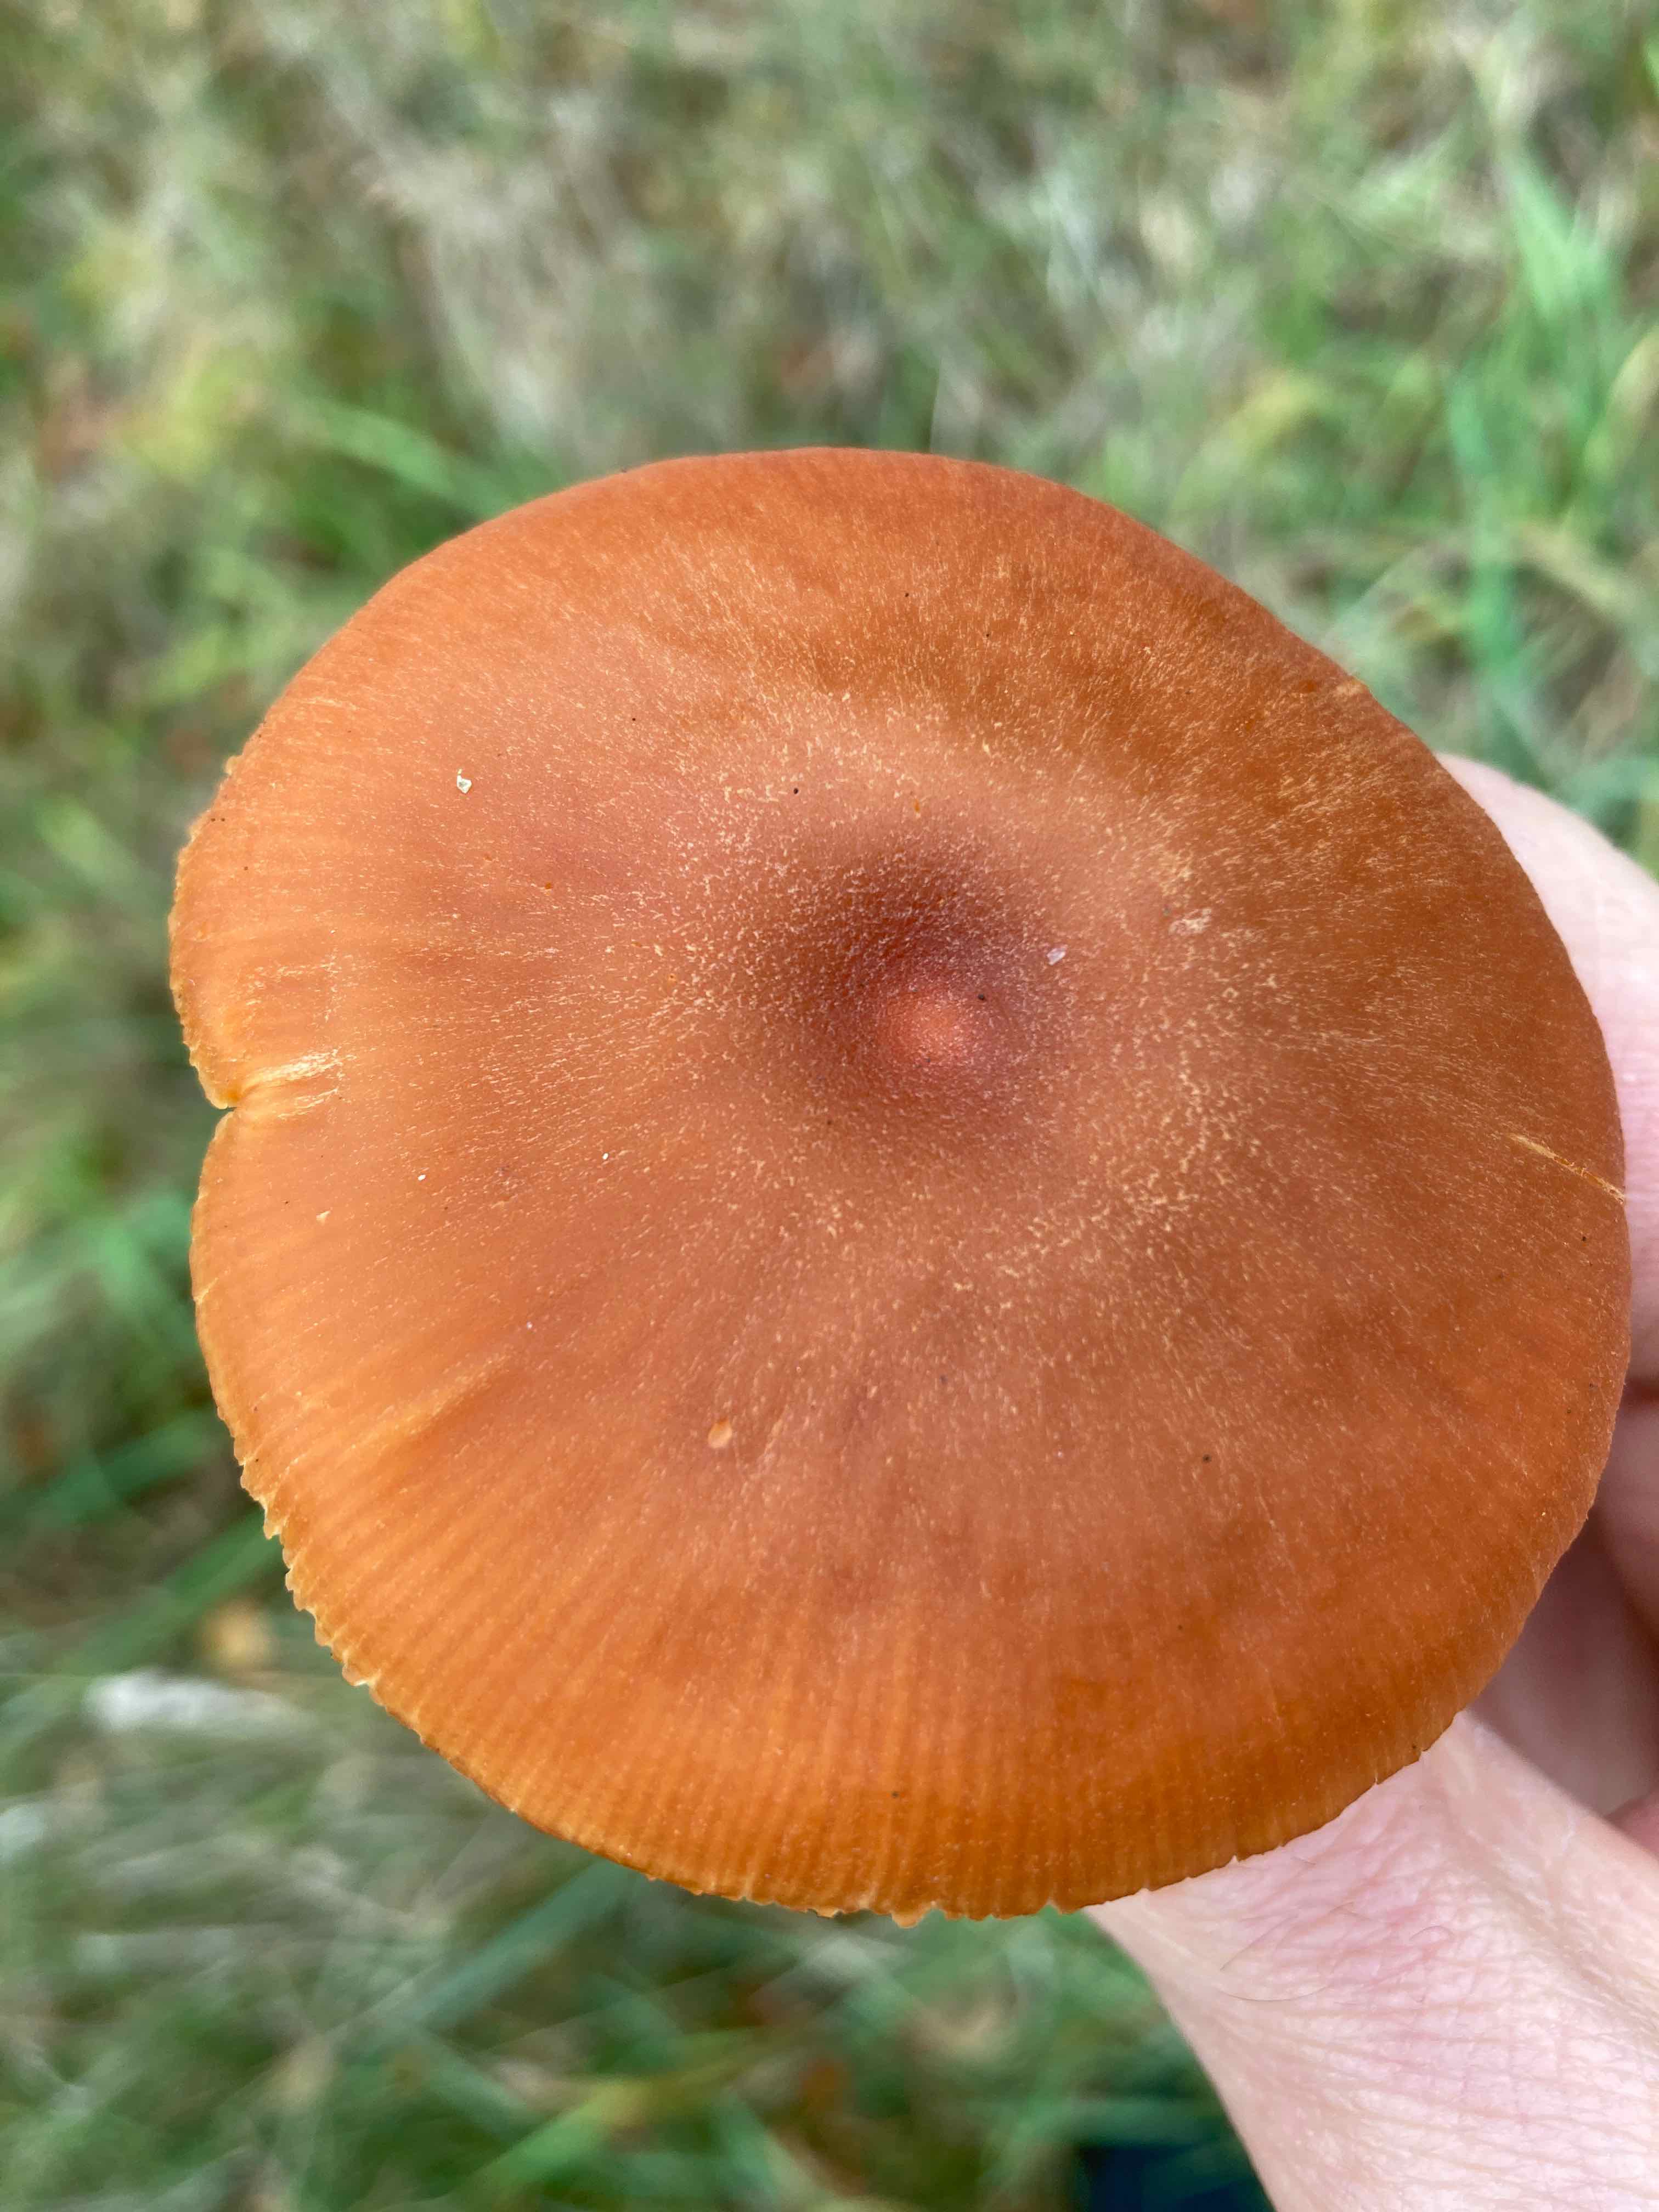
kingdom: Fungi
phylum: Basidiomycota
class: Agaricomycetes
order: Agaricales
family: Hydnangiaceae
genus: Laccaria
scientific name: Laccaria proxima
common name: stor ametysthat
